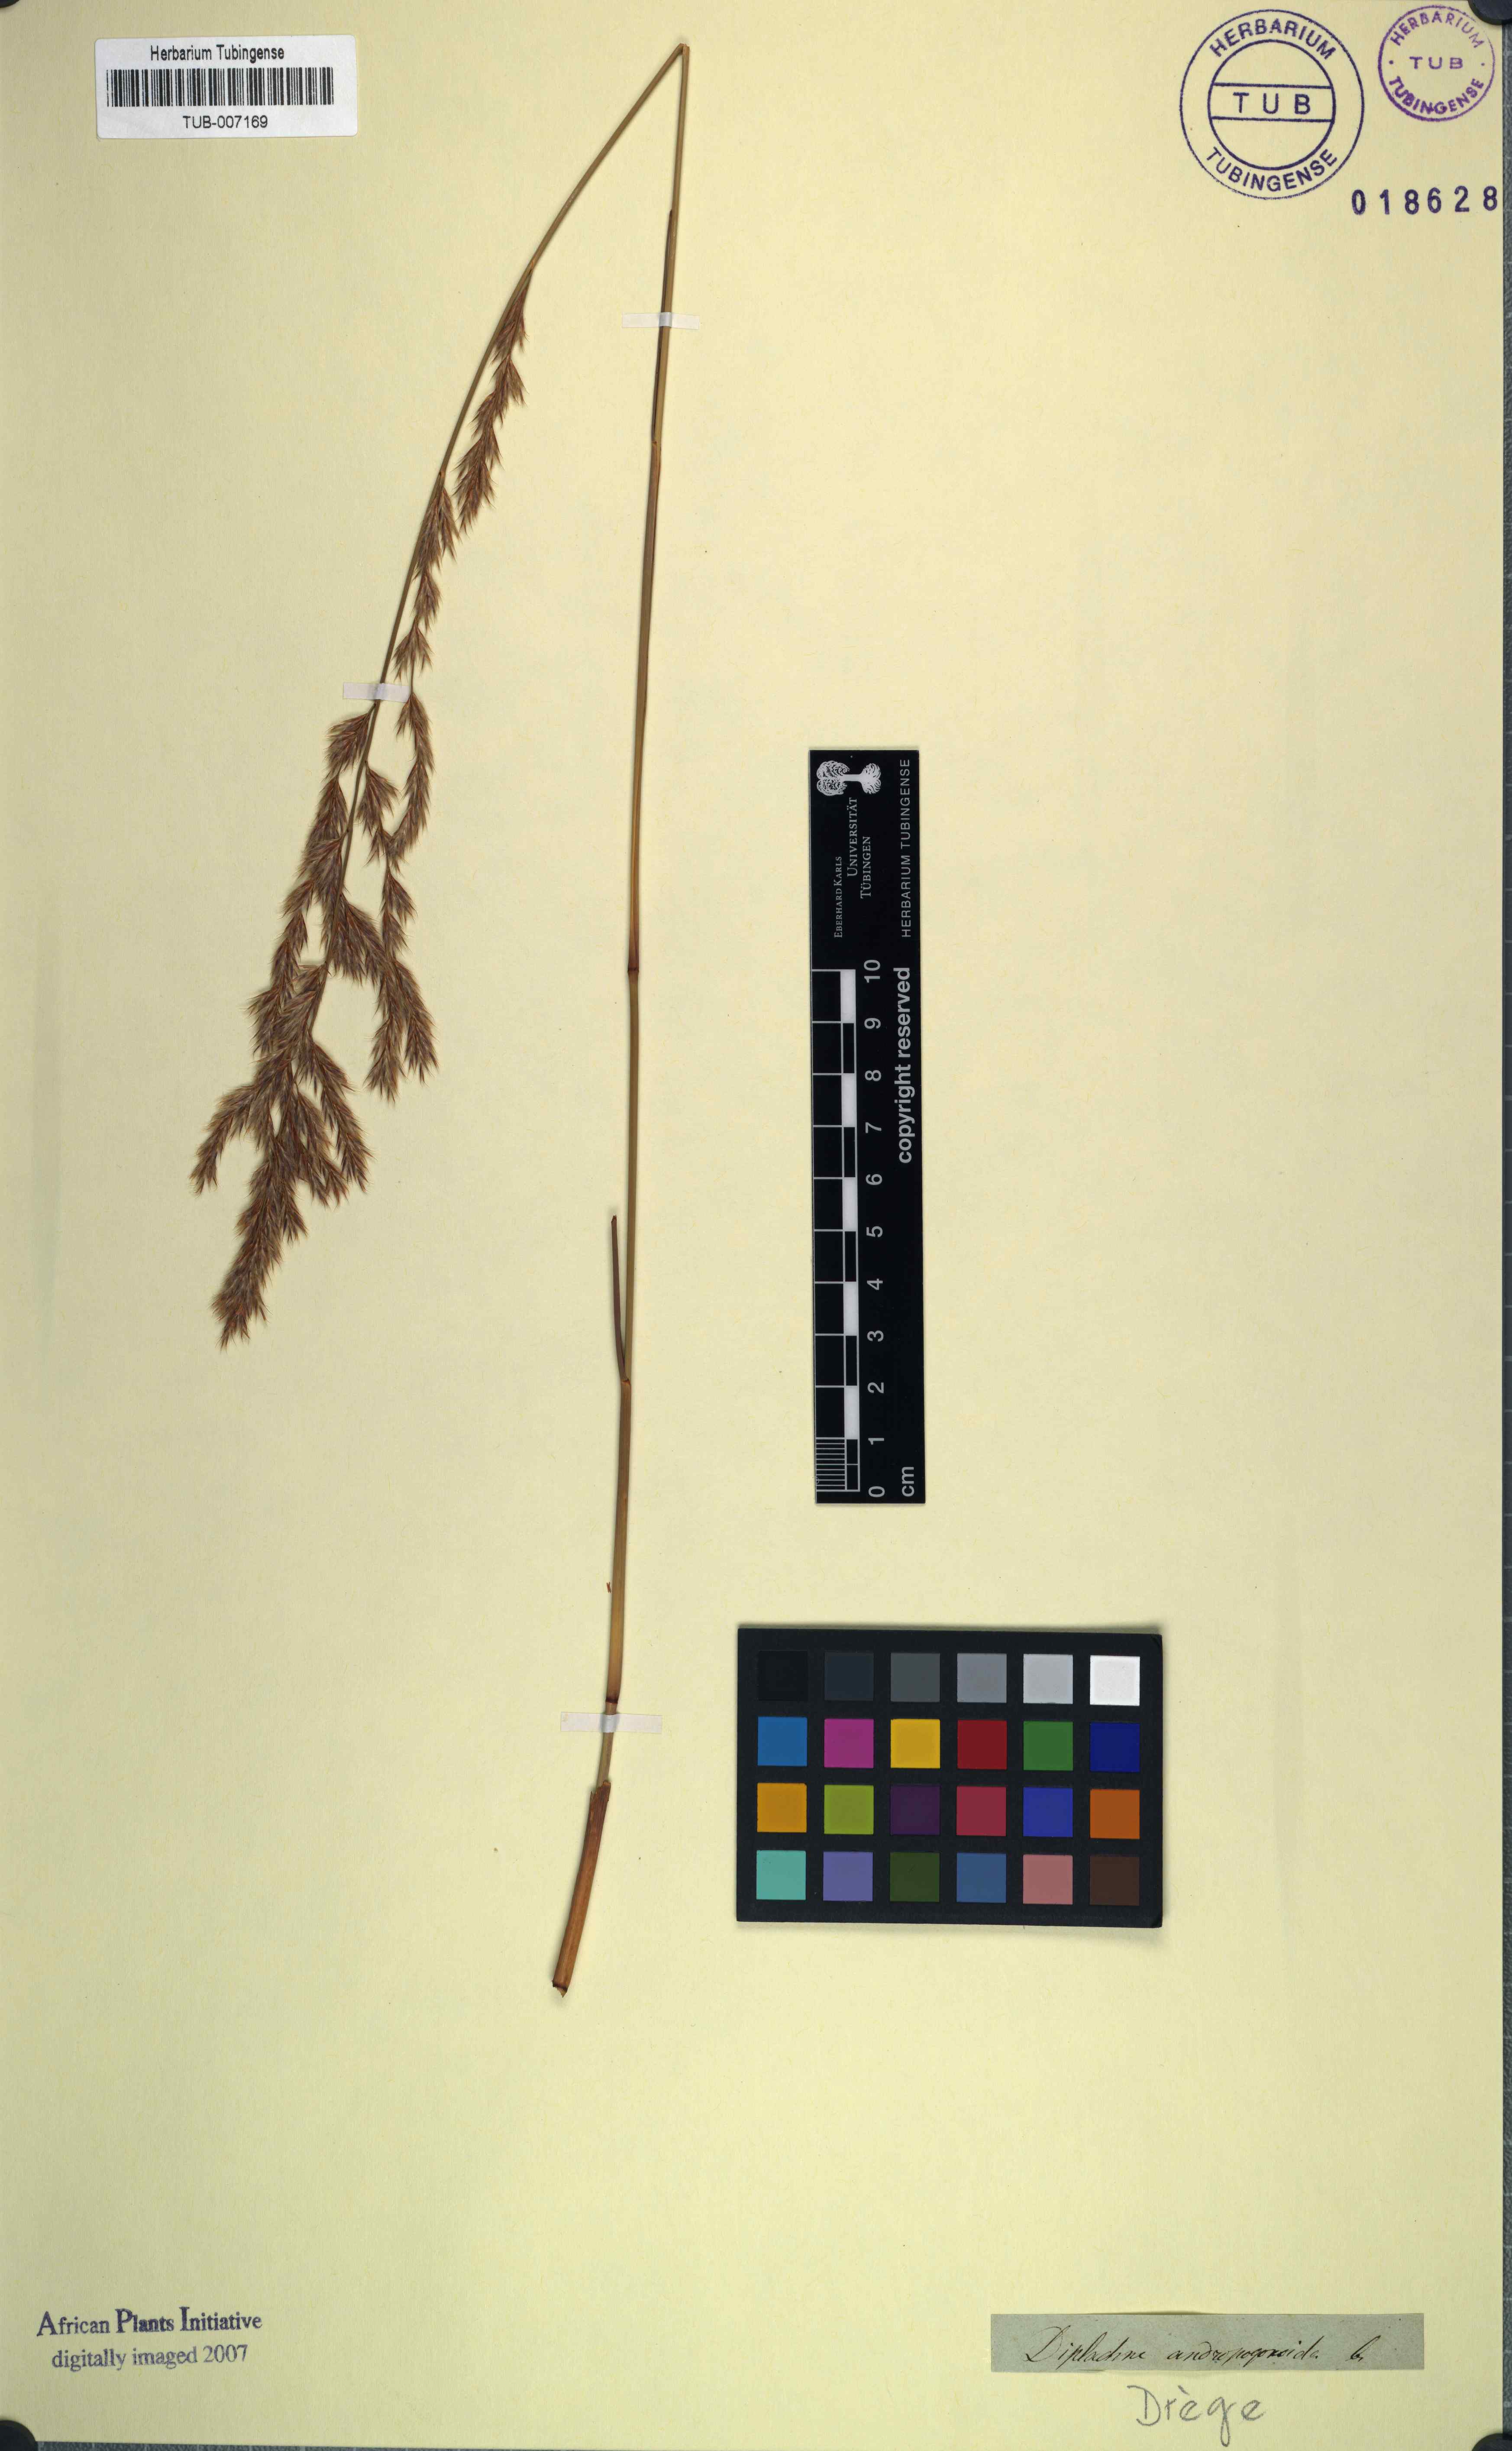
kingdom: Plantae
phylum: Tracheophyta
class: Liliopsida
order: Poales
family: Poaceae
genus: Triraphis
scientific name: Triraphis andropogonoides
